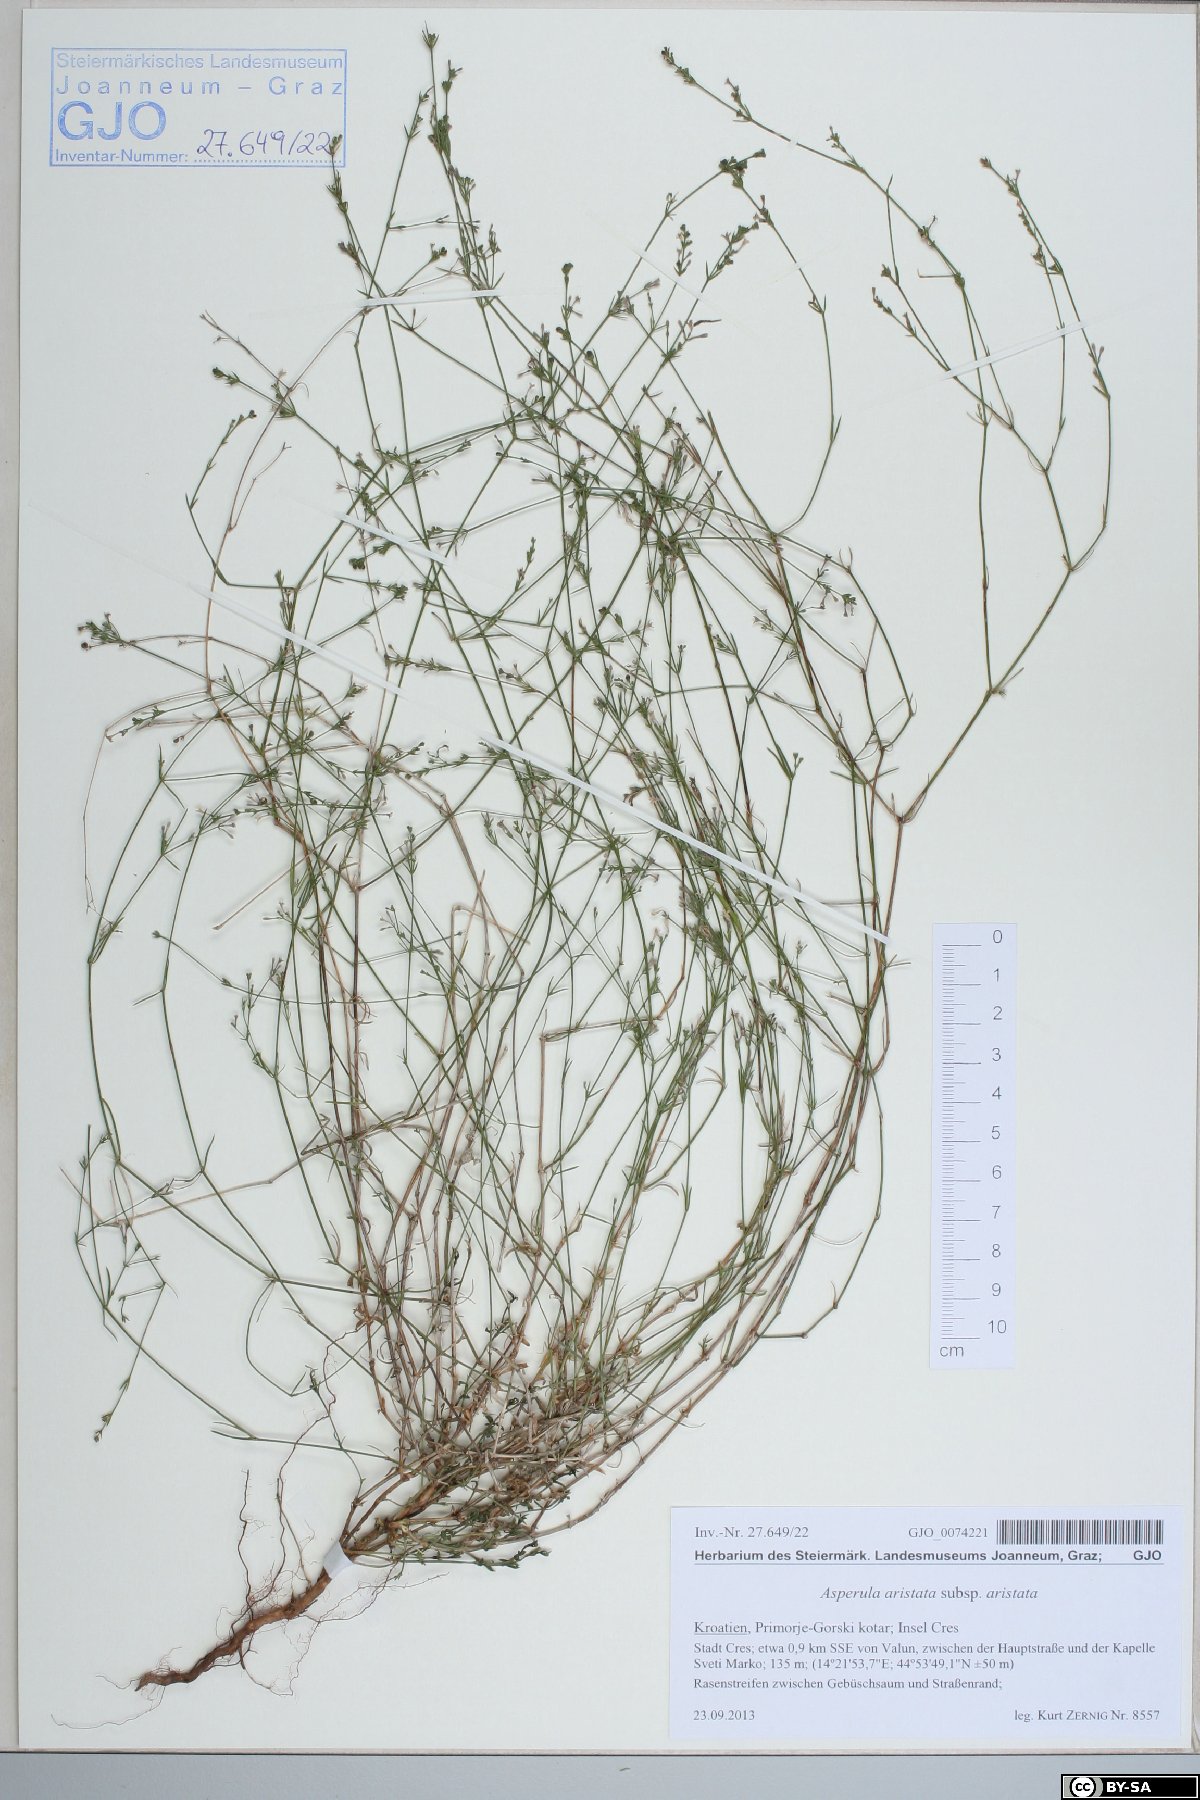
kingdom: Plantae
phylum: Tracheophyta
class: Magnoliopsida
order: Gentianales
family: Rubiaceae
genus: Cynanchica
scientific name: Cynanchica aristata
